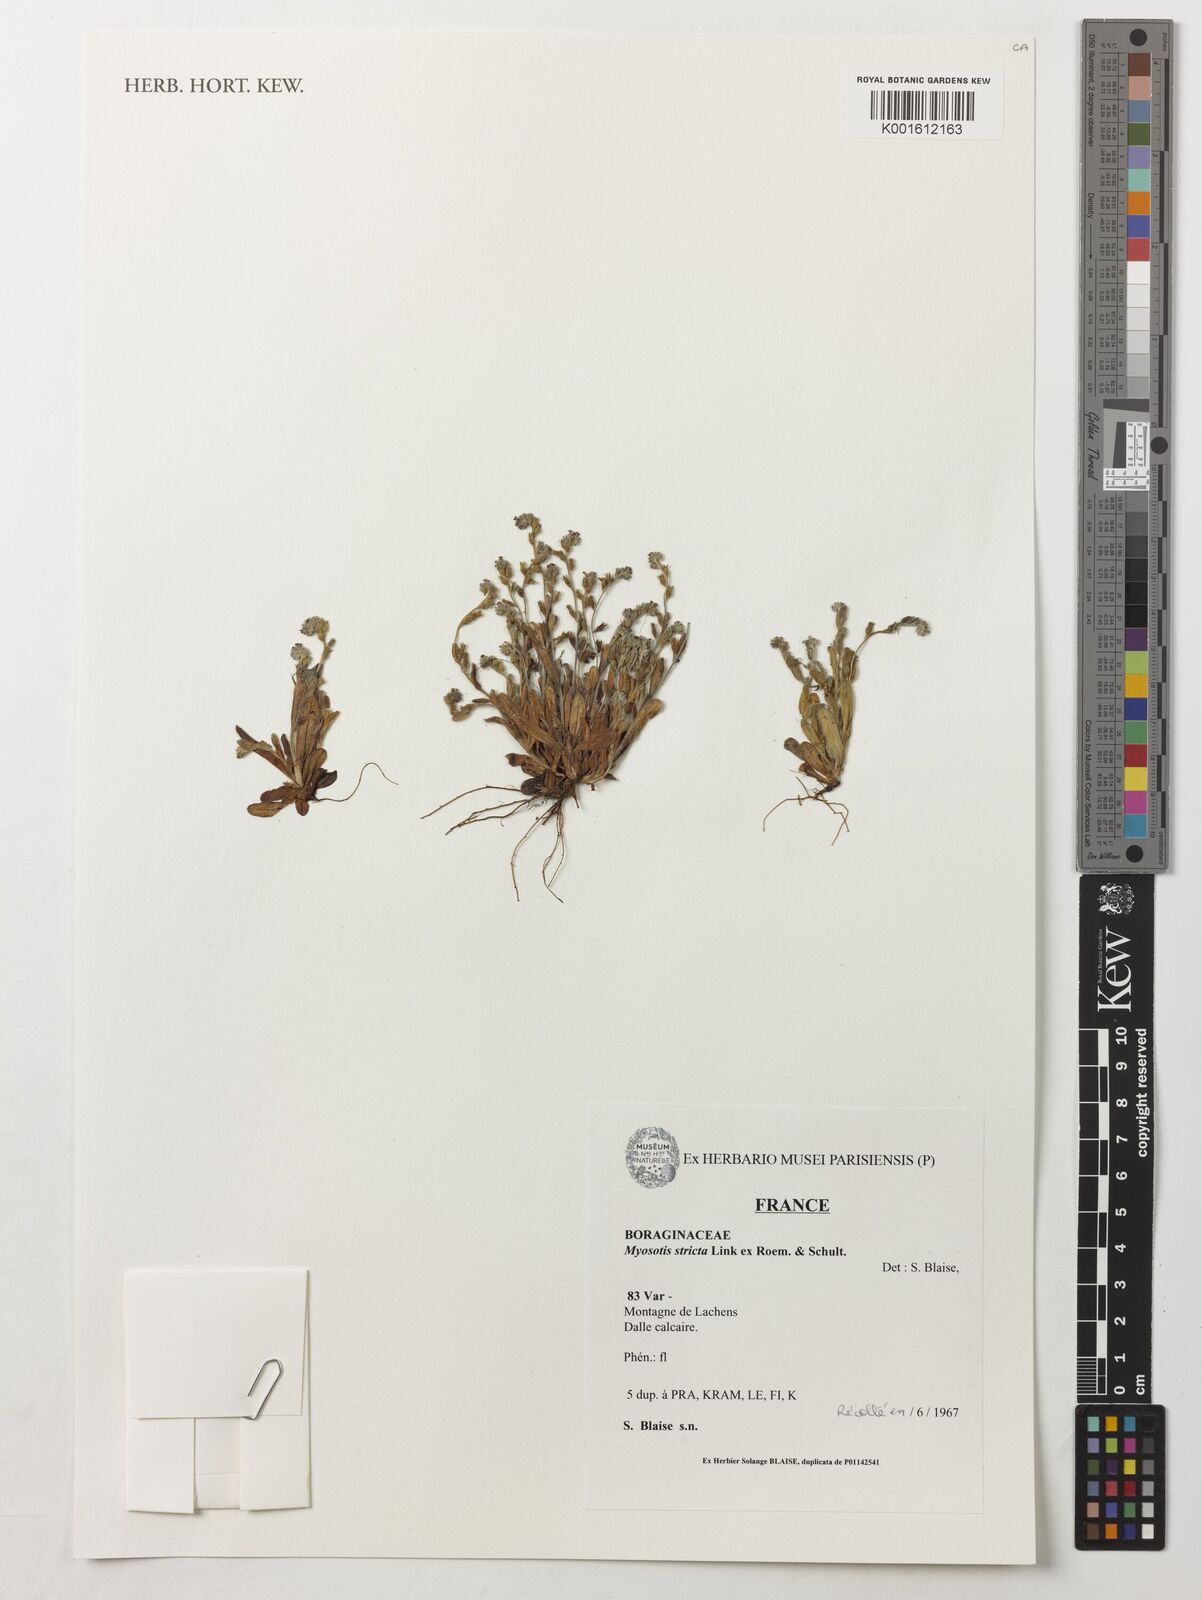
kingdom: Plantae
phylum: Tracheophyta
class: Magnoliopsida
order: Boraginales
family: Boraginaceae
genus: Myosotis
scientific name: Myosotis stricta
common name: Strict forget-me-not
